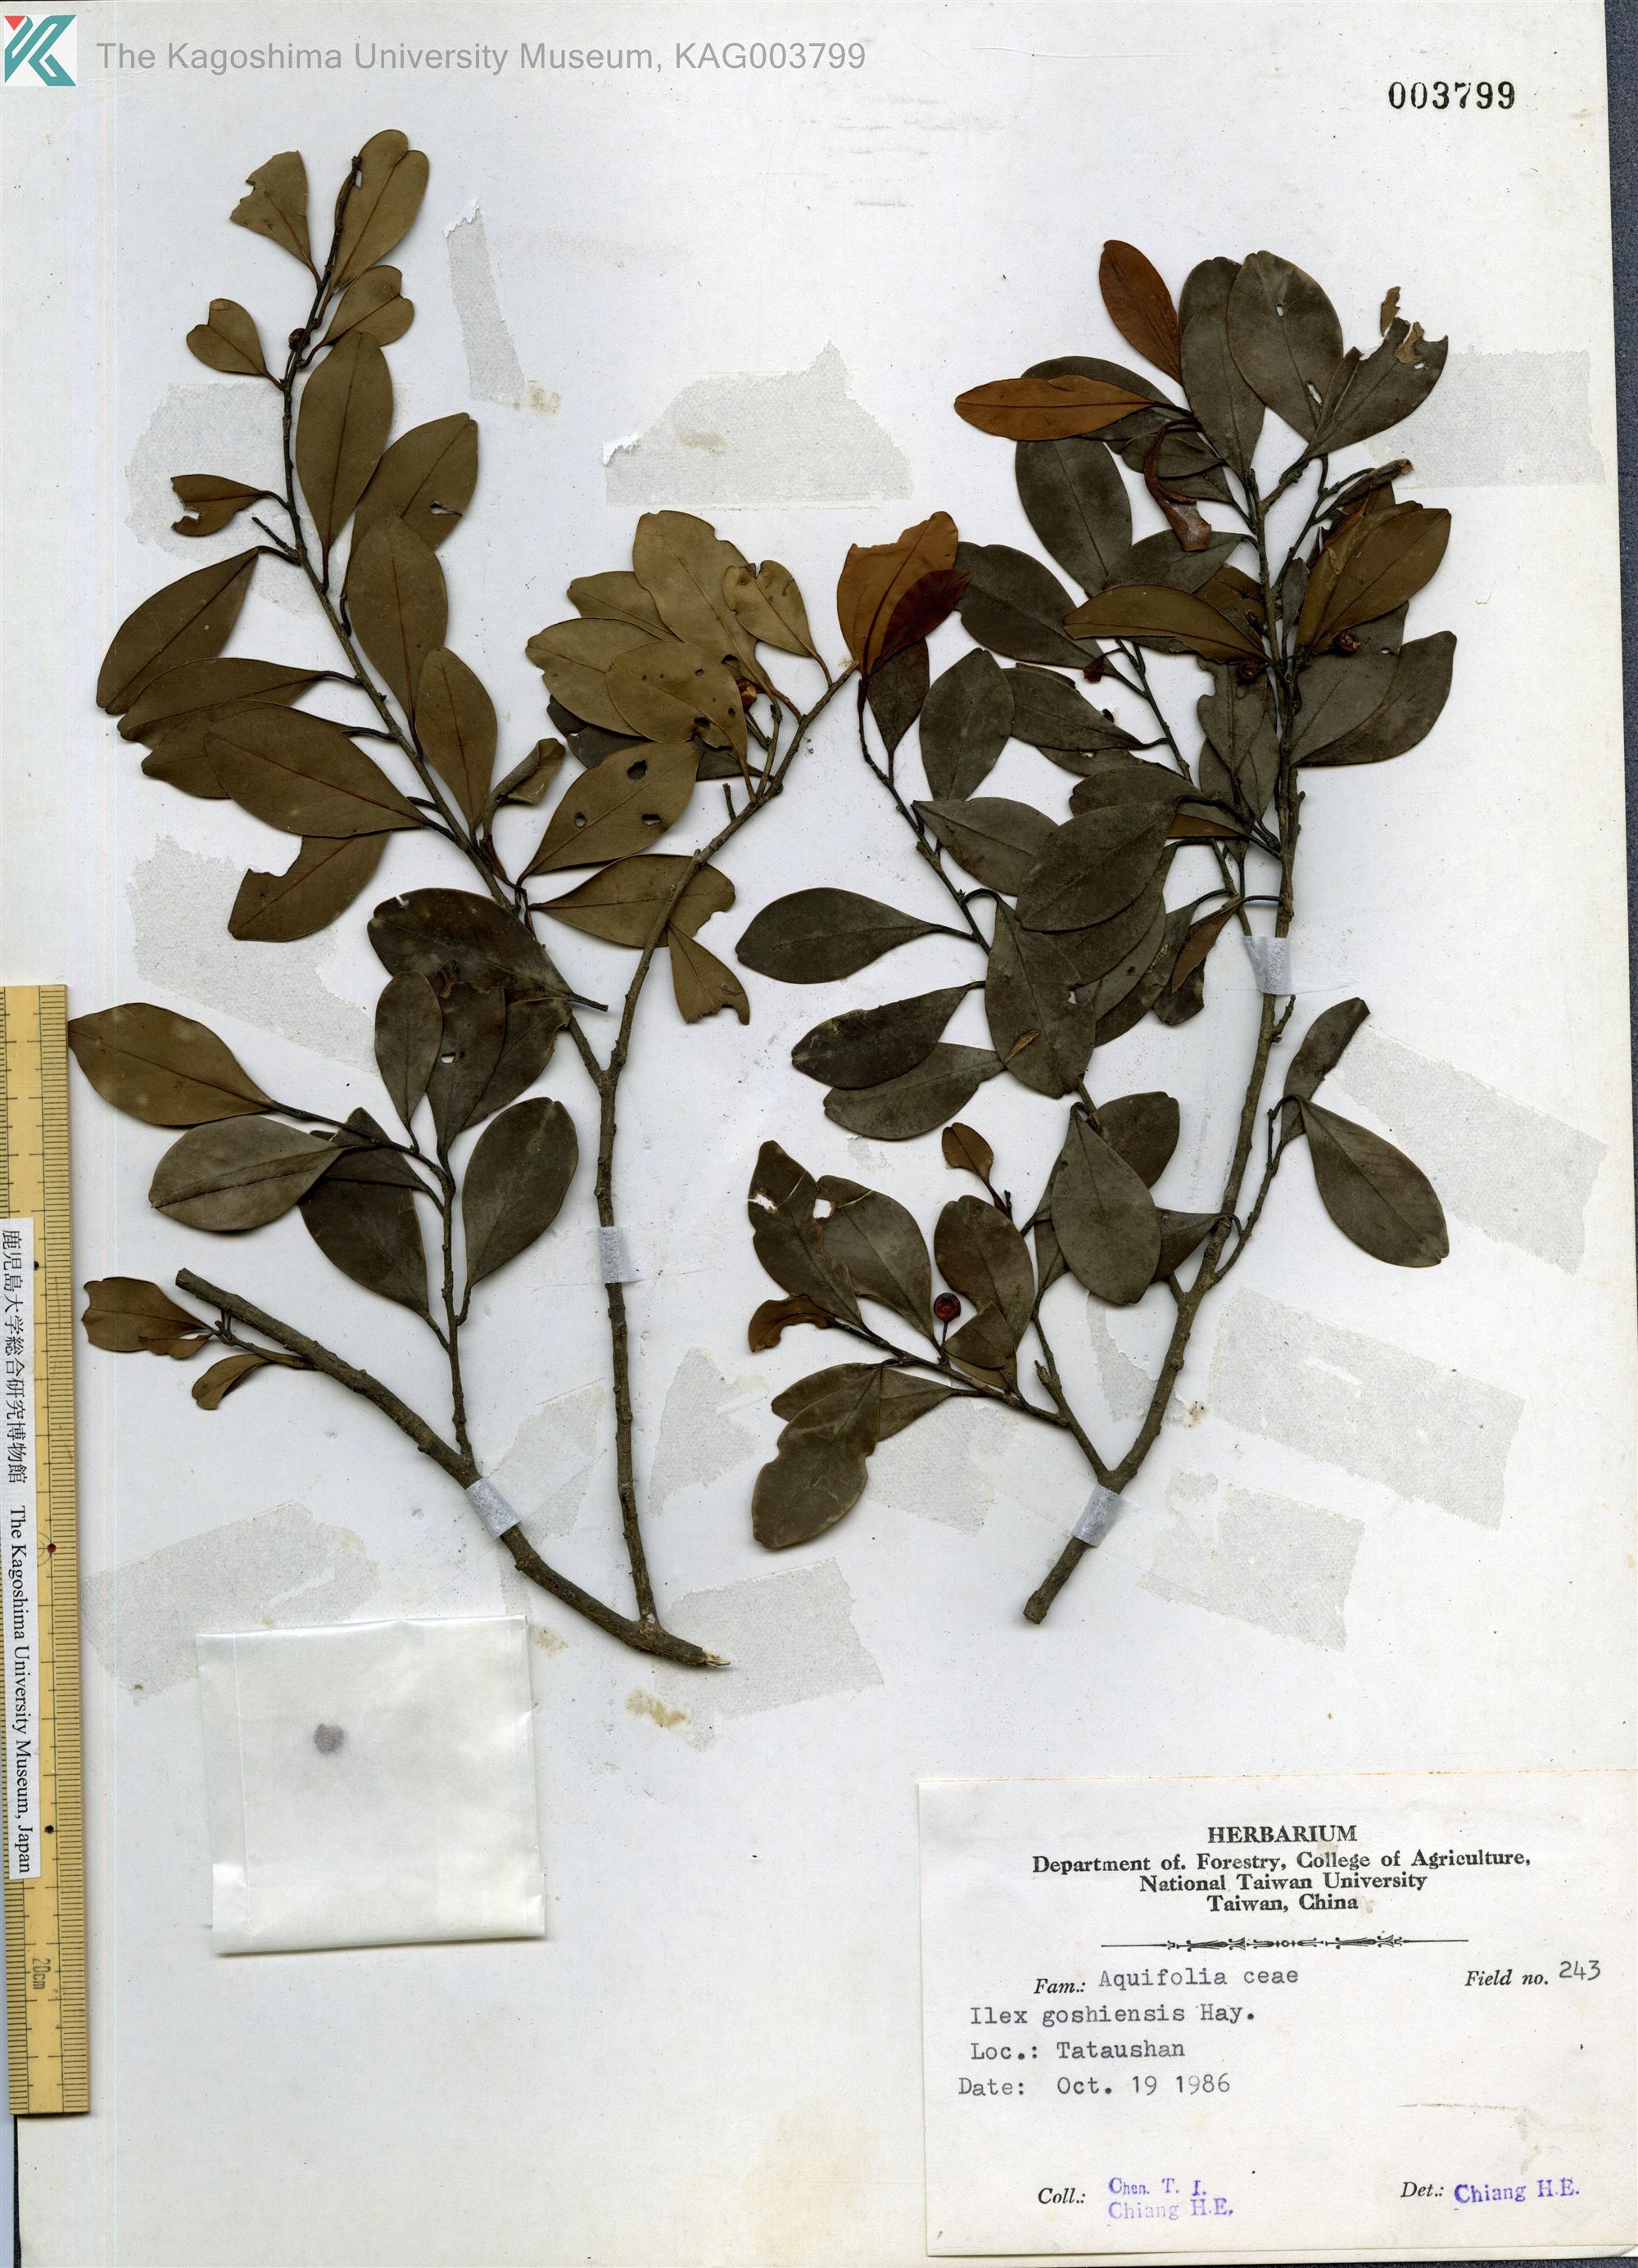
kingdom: Plantae
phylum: Tracheophyta
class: Magnoliopsida
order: Aquifoliales
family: Aquifoliaceae
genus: Ilex
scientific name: Ilex goshiensis
